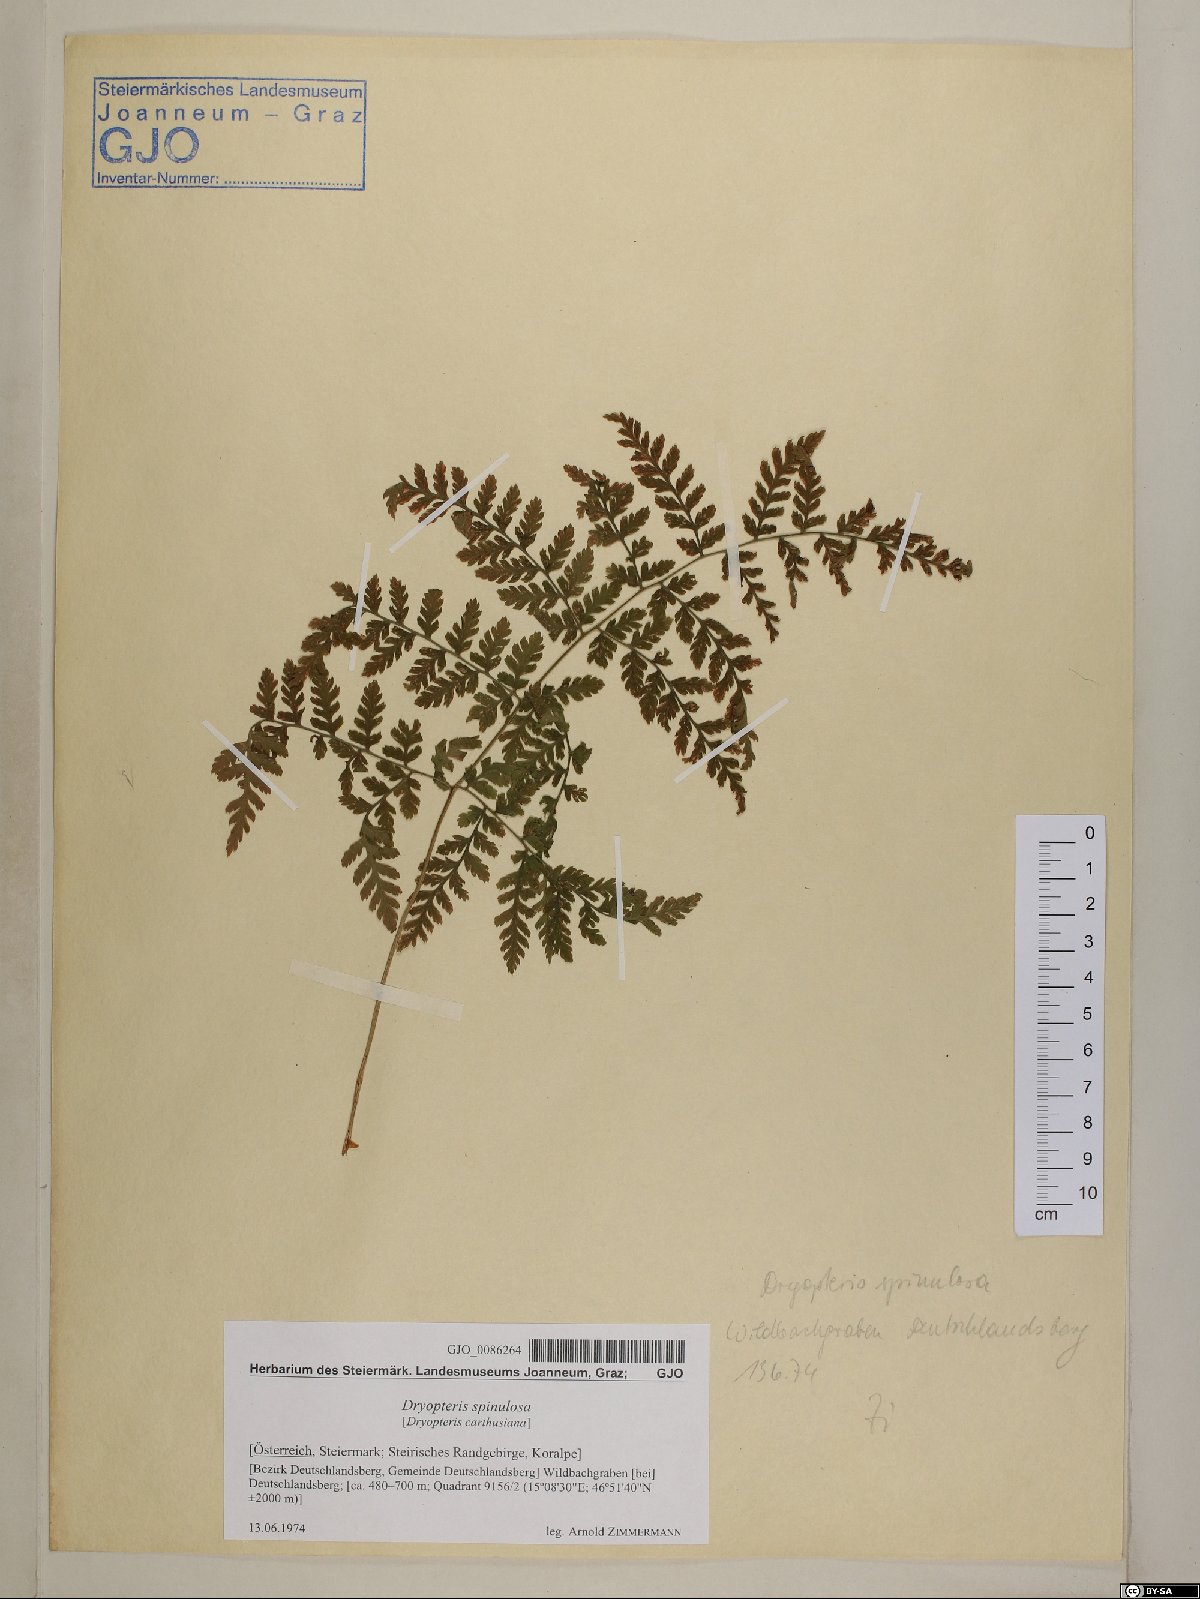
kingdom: Plantae
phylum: Tracheophyta
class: Polypodiopsida
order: Polypodiales
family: Dryopteridaceae
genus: Dryopteris
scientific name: Dryopteris carthusiana
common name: Narrow buckler-fern
